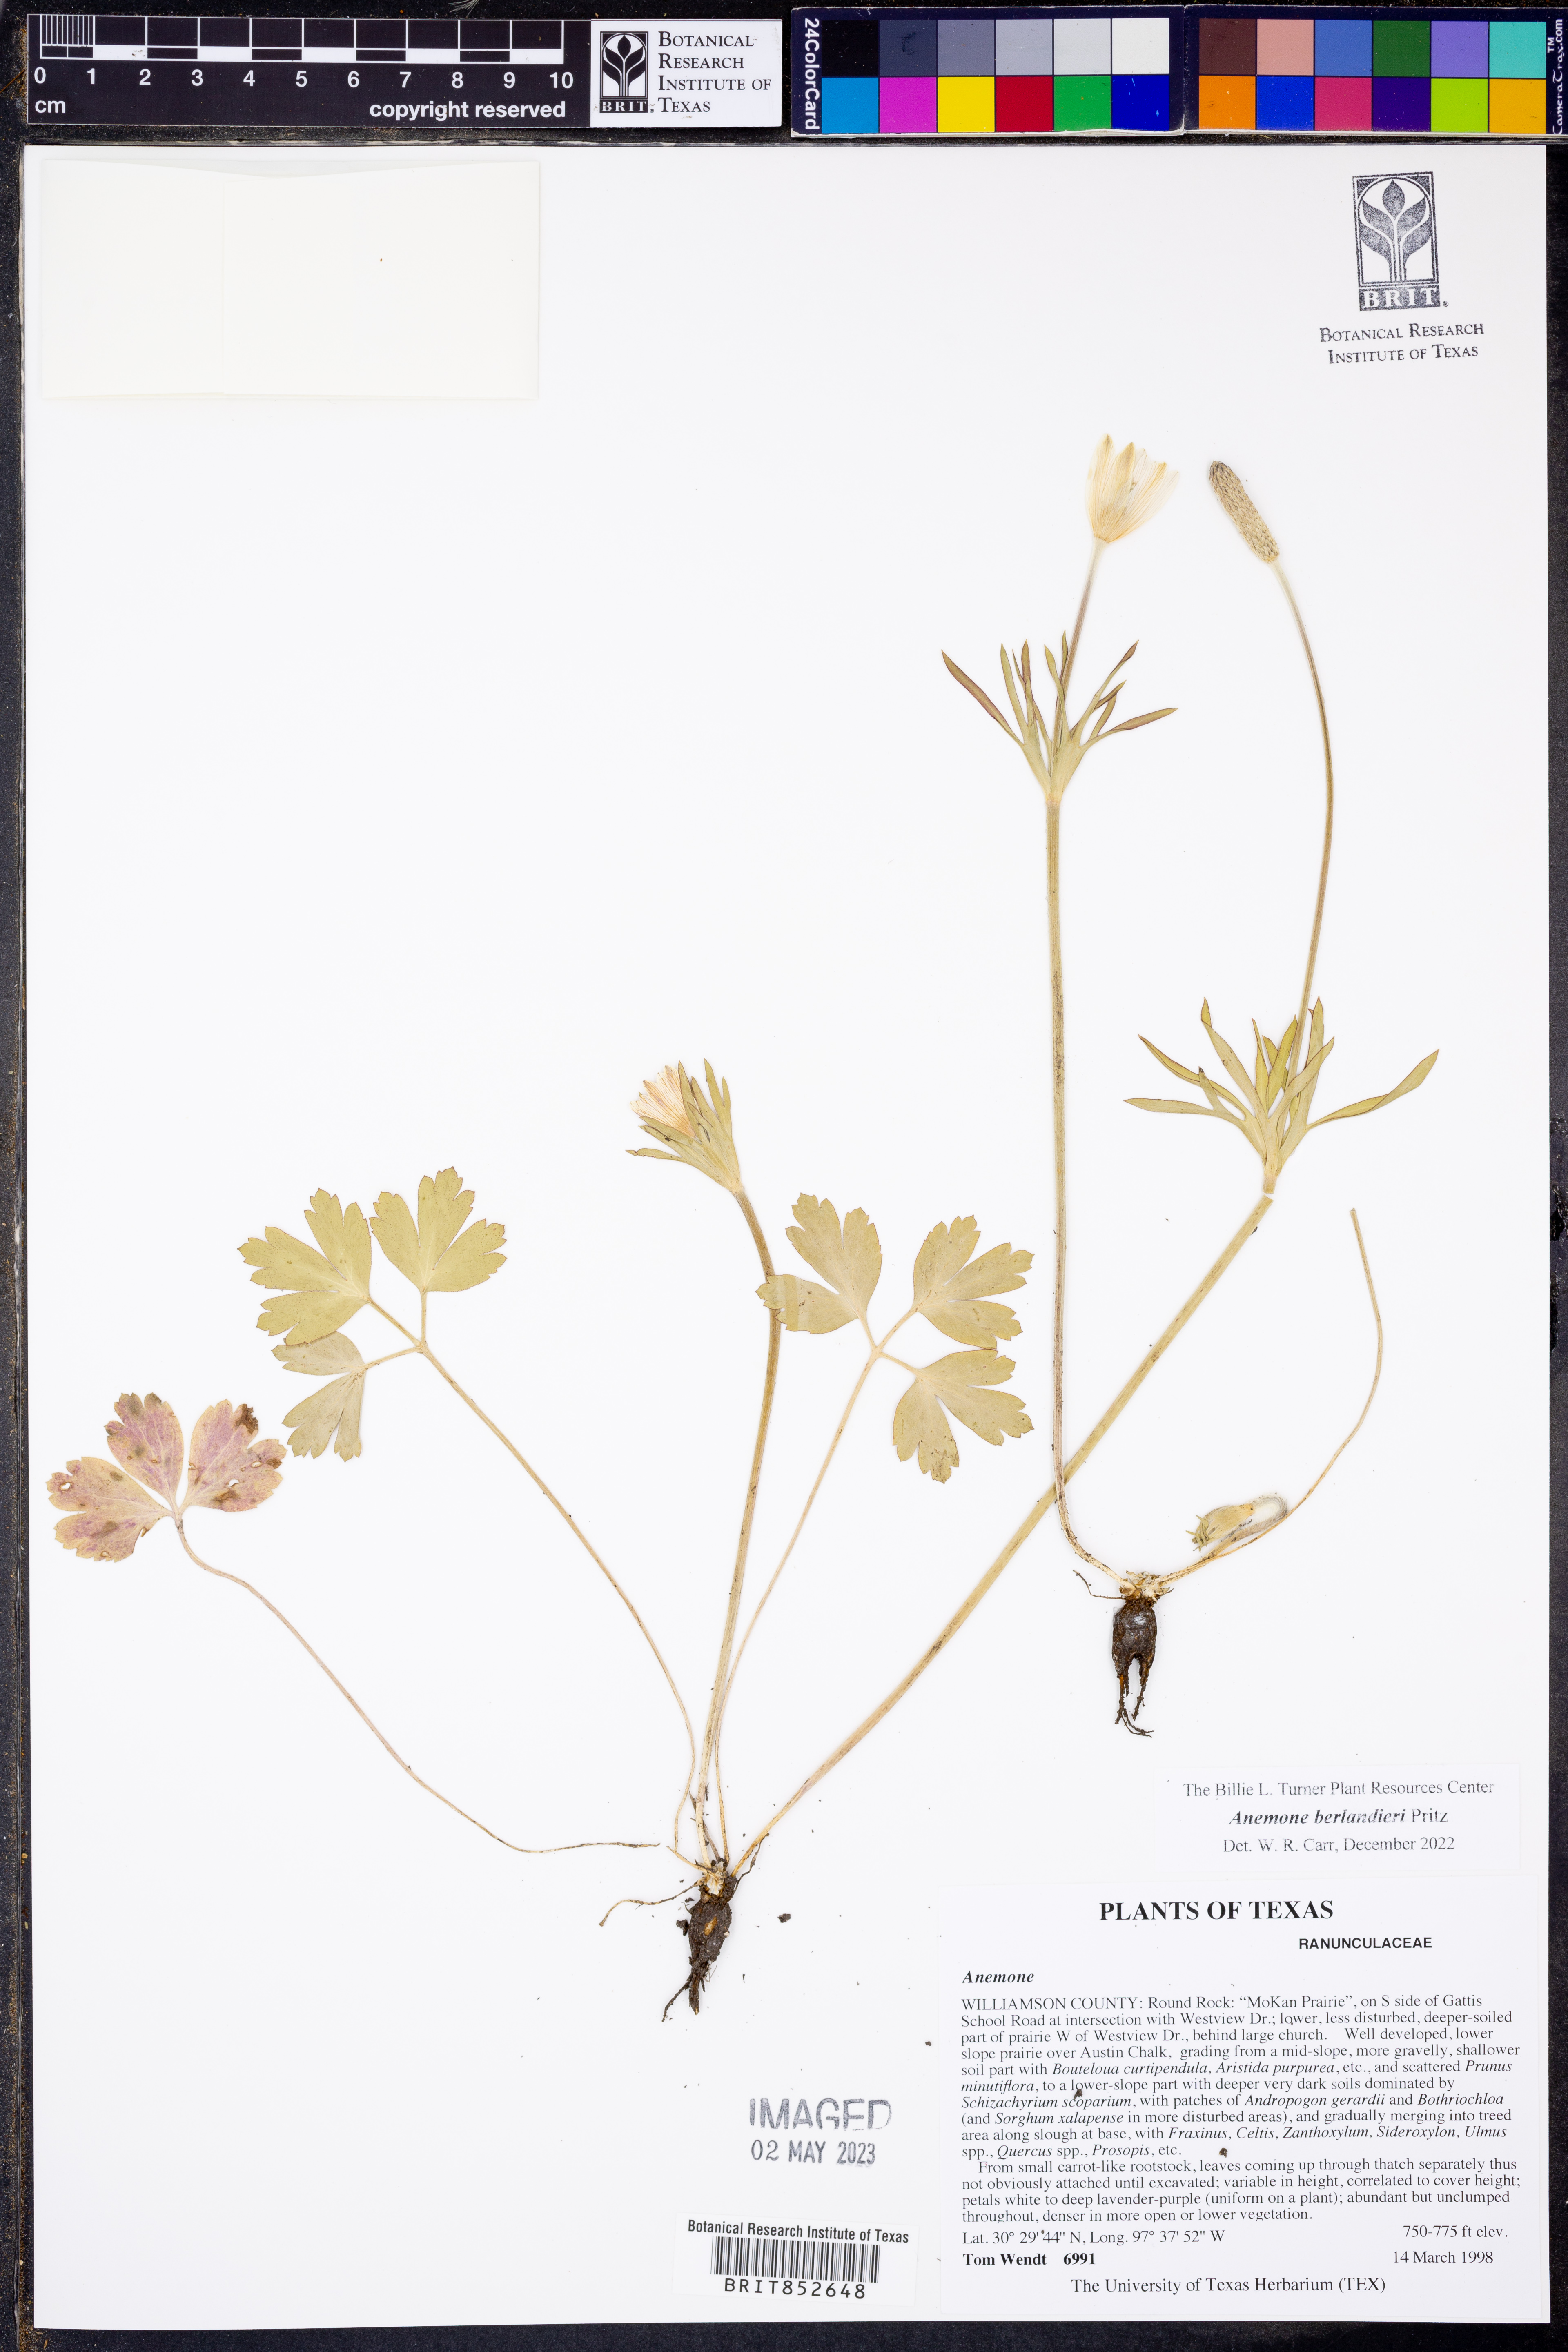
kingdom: Plantae
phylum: Tracheophyta
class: Magnoliopsida
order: Ranunculales
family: Ranunculaceae
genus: Anemone
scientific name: Anemone berlandieri
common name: Ten-petal anemone
